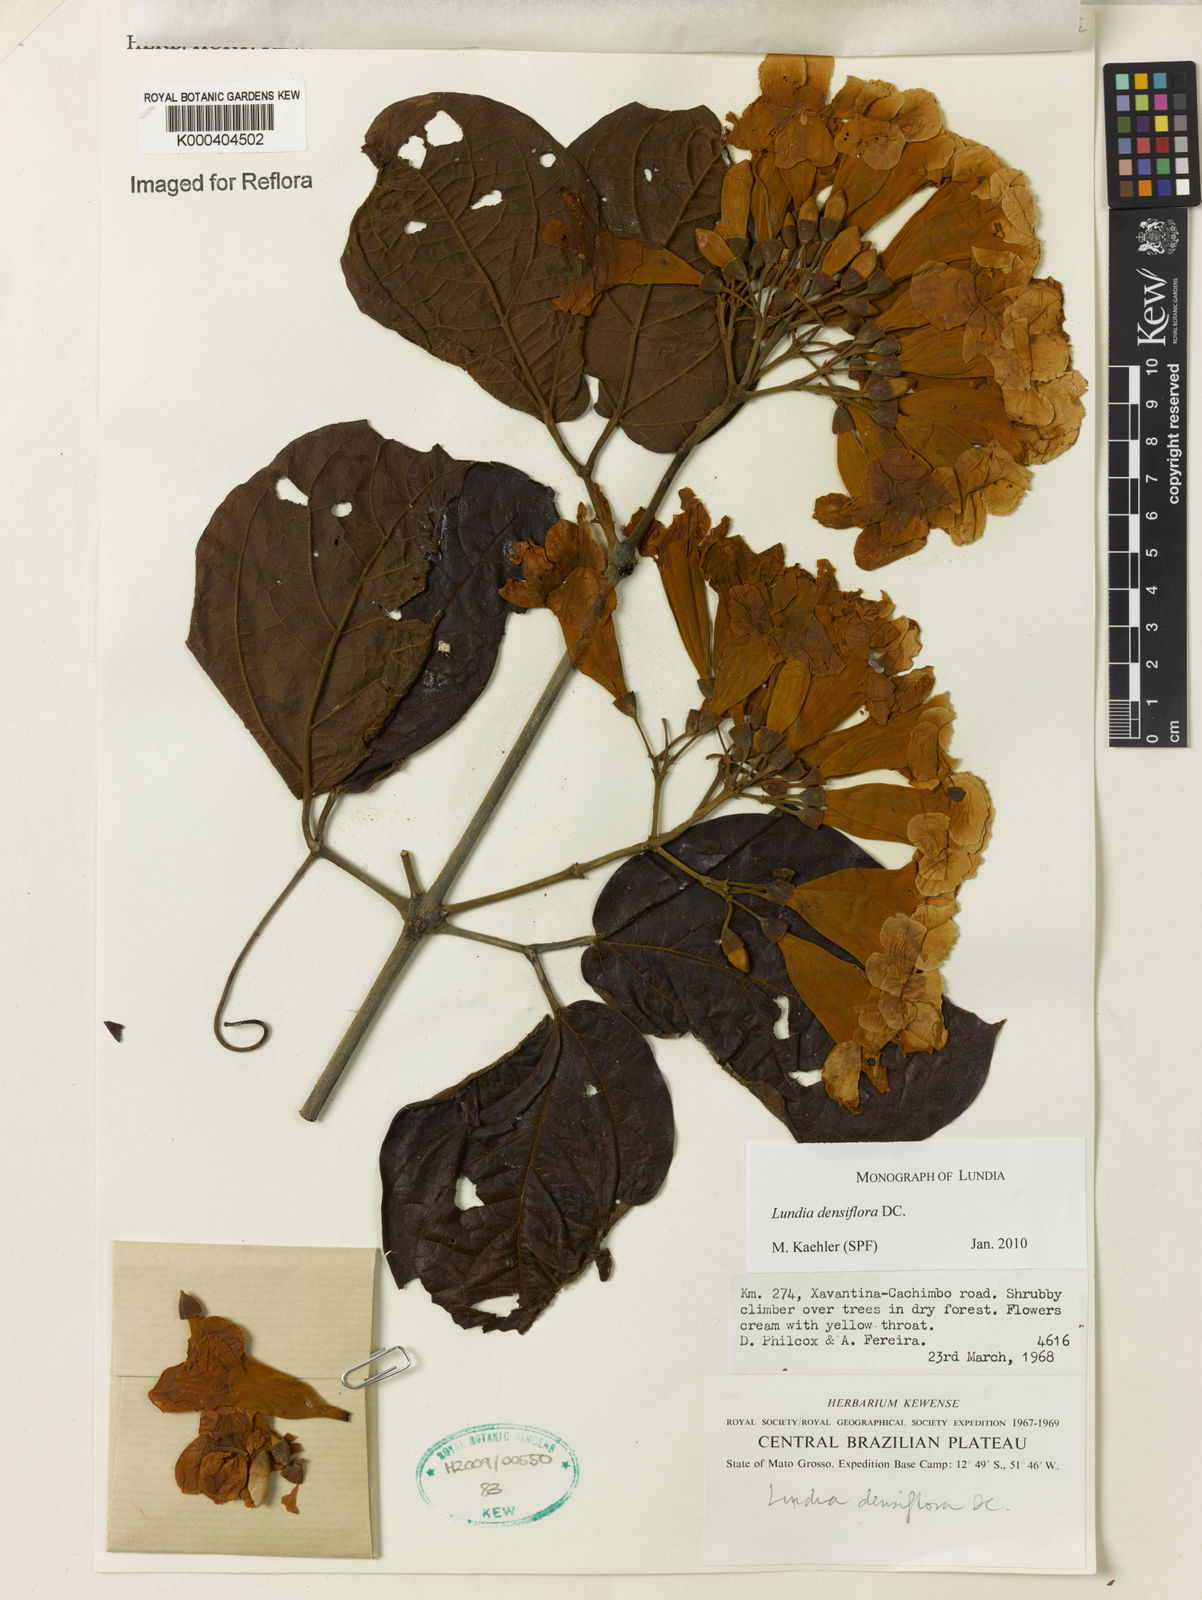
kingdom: Plantae
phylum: Tracheophyta
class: Magnoliopsida
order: Lamiales
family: Bignoniaceae
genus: Lundia
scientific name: Lundia densiflora
